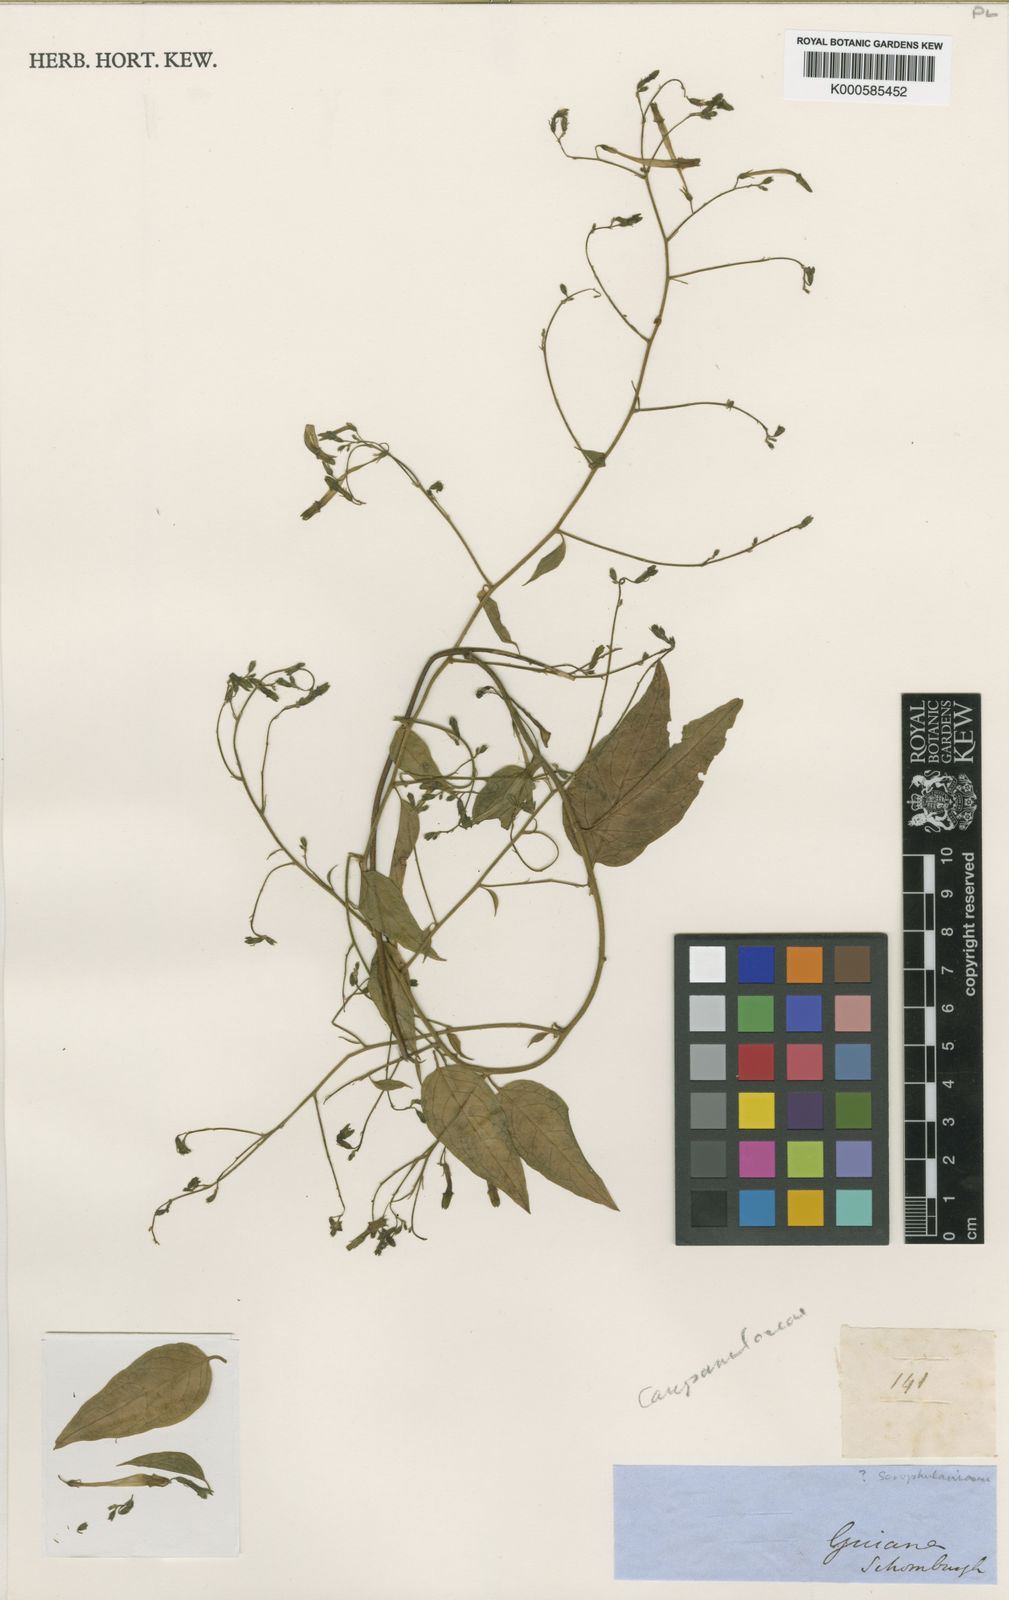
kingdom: Plantae
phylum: Tracheophyta
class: Magnoliopsida
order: Solanales
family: Solanaceae
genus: Schwenckia
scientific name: Schwenckia grandiflora
